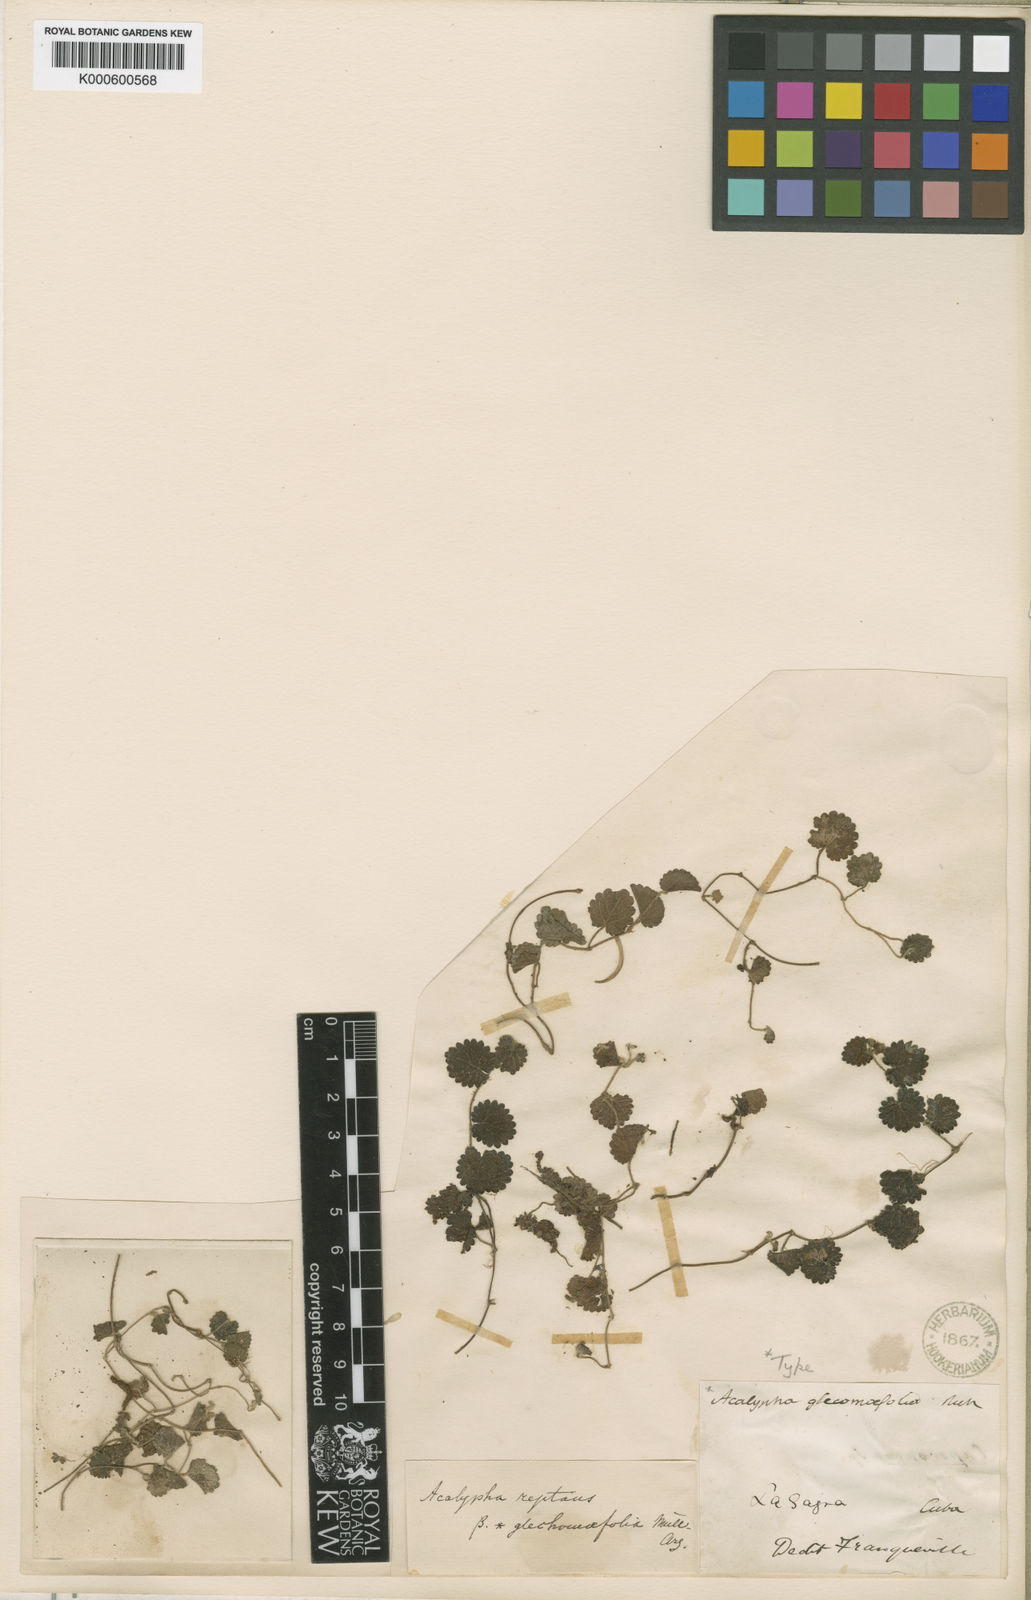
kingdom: Plantae
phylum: Tracheophyta
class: Magnoliopsida
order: Malpighiales
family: Euphorbiaceae
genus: Acalypha
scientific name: Acalypha glechomifolia
